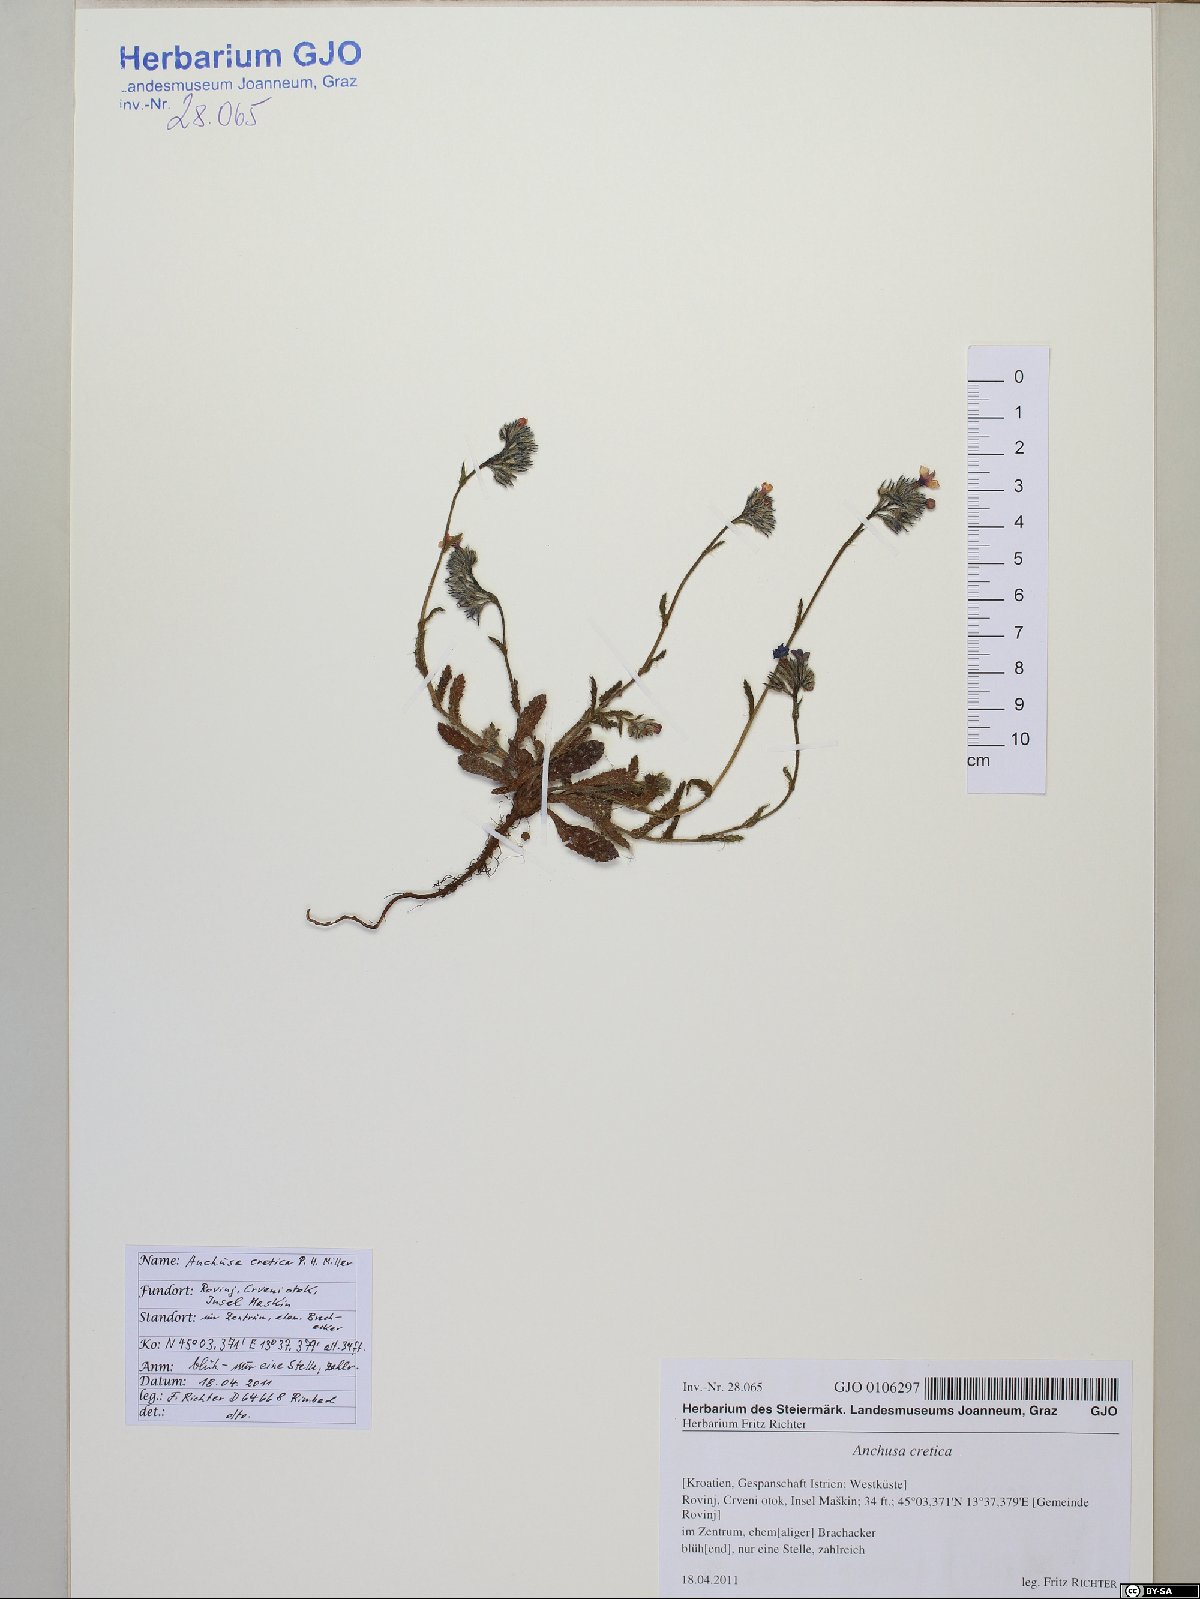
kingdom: Plantae
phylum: Tracheophyta
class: Magnoliopsida
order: Boraginales
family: Boraginaceae
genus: Anchusella
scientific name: Anchusella cretica
